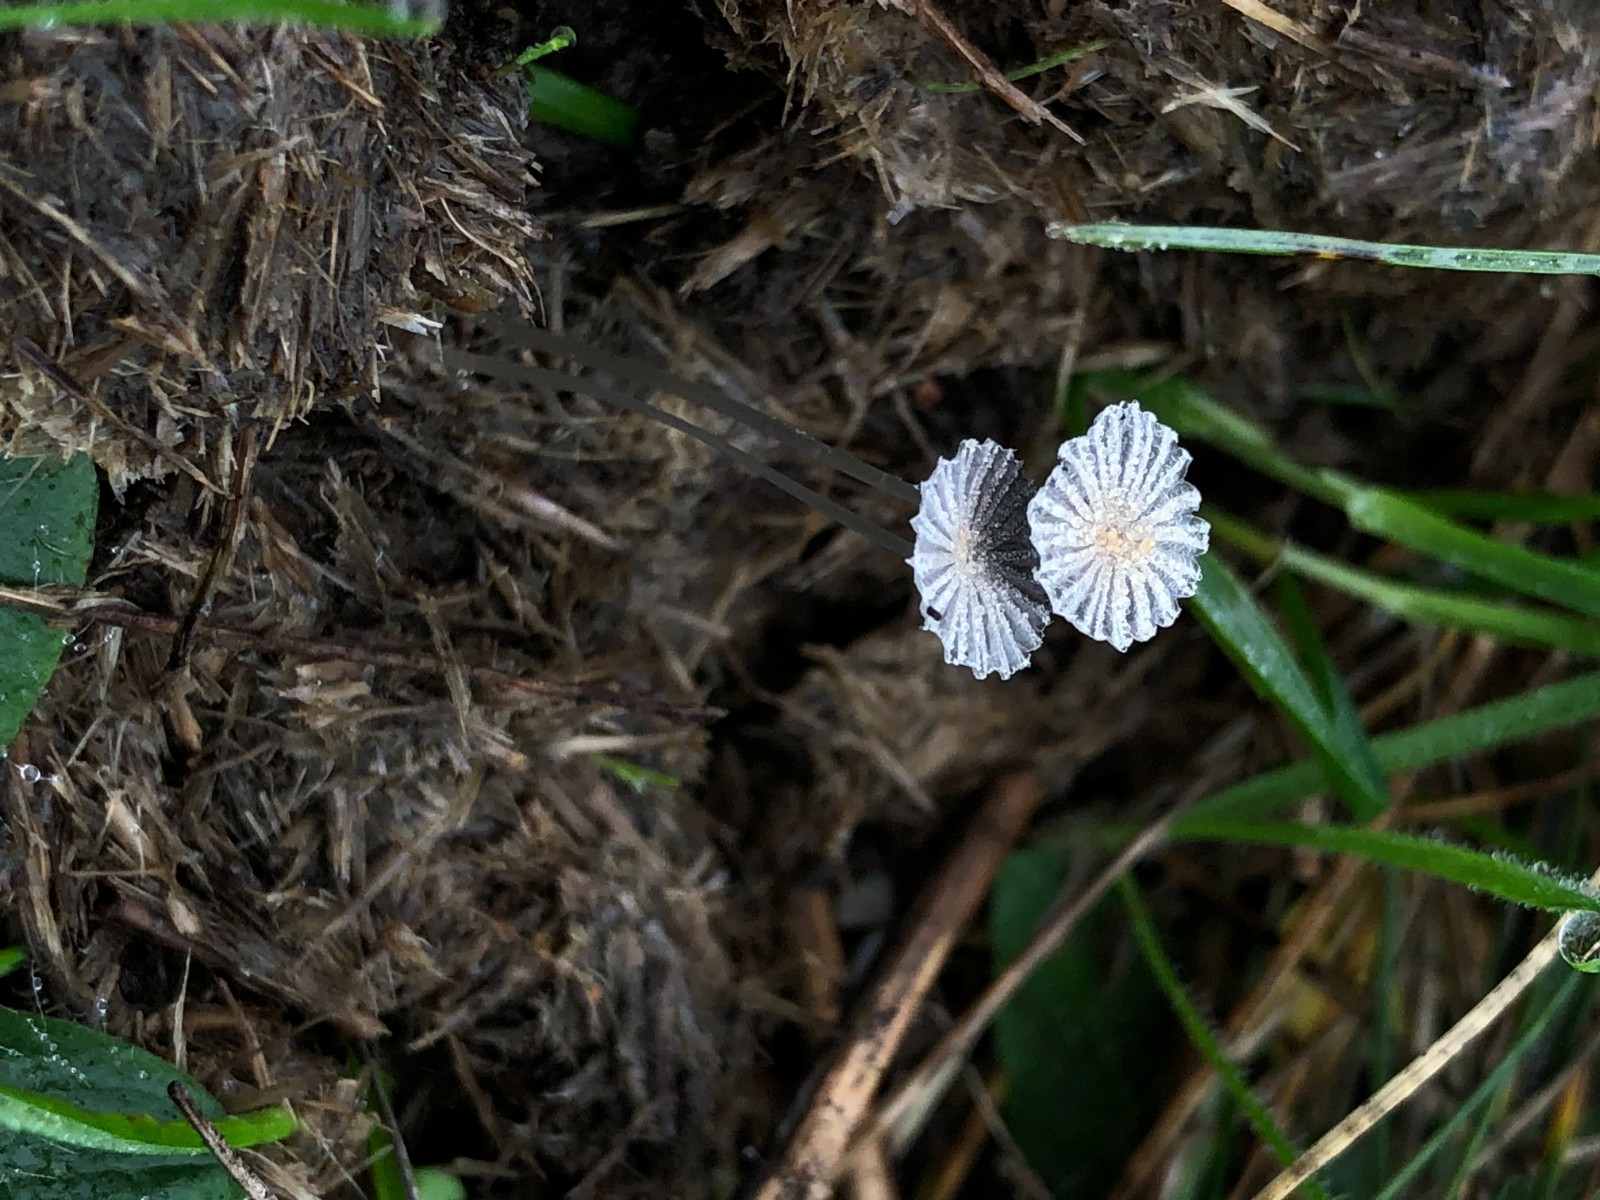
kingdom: Fungi
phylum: Basidiomycota
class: Agaricomycetes
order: Agaricales
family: Psathyrellaceae
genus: Coprinellus
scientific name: Coprinellus
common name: blækhat
